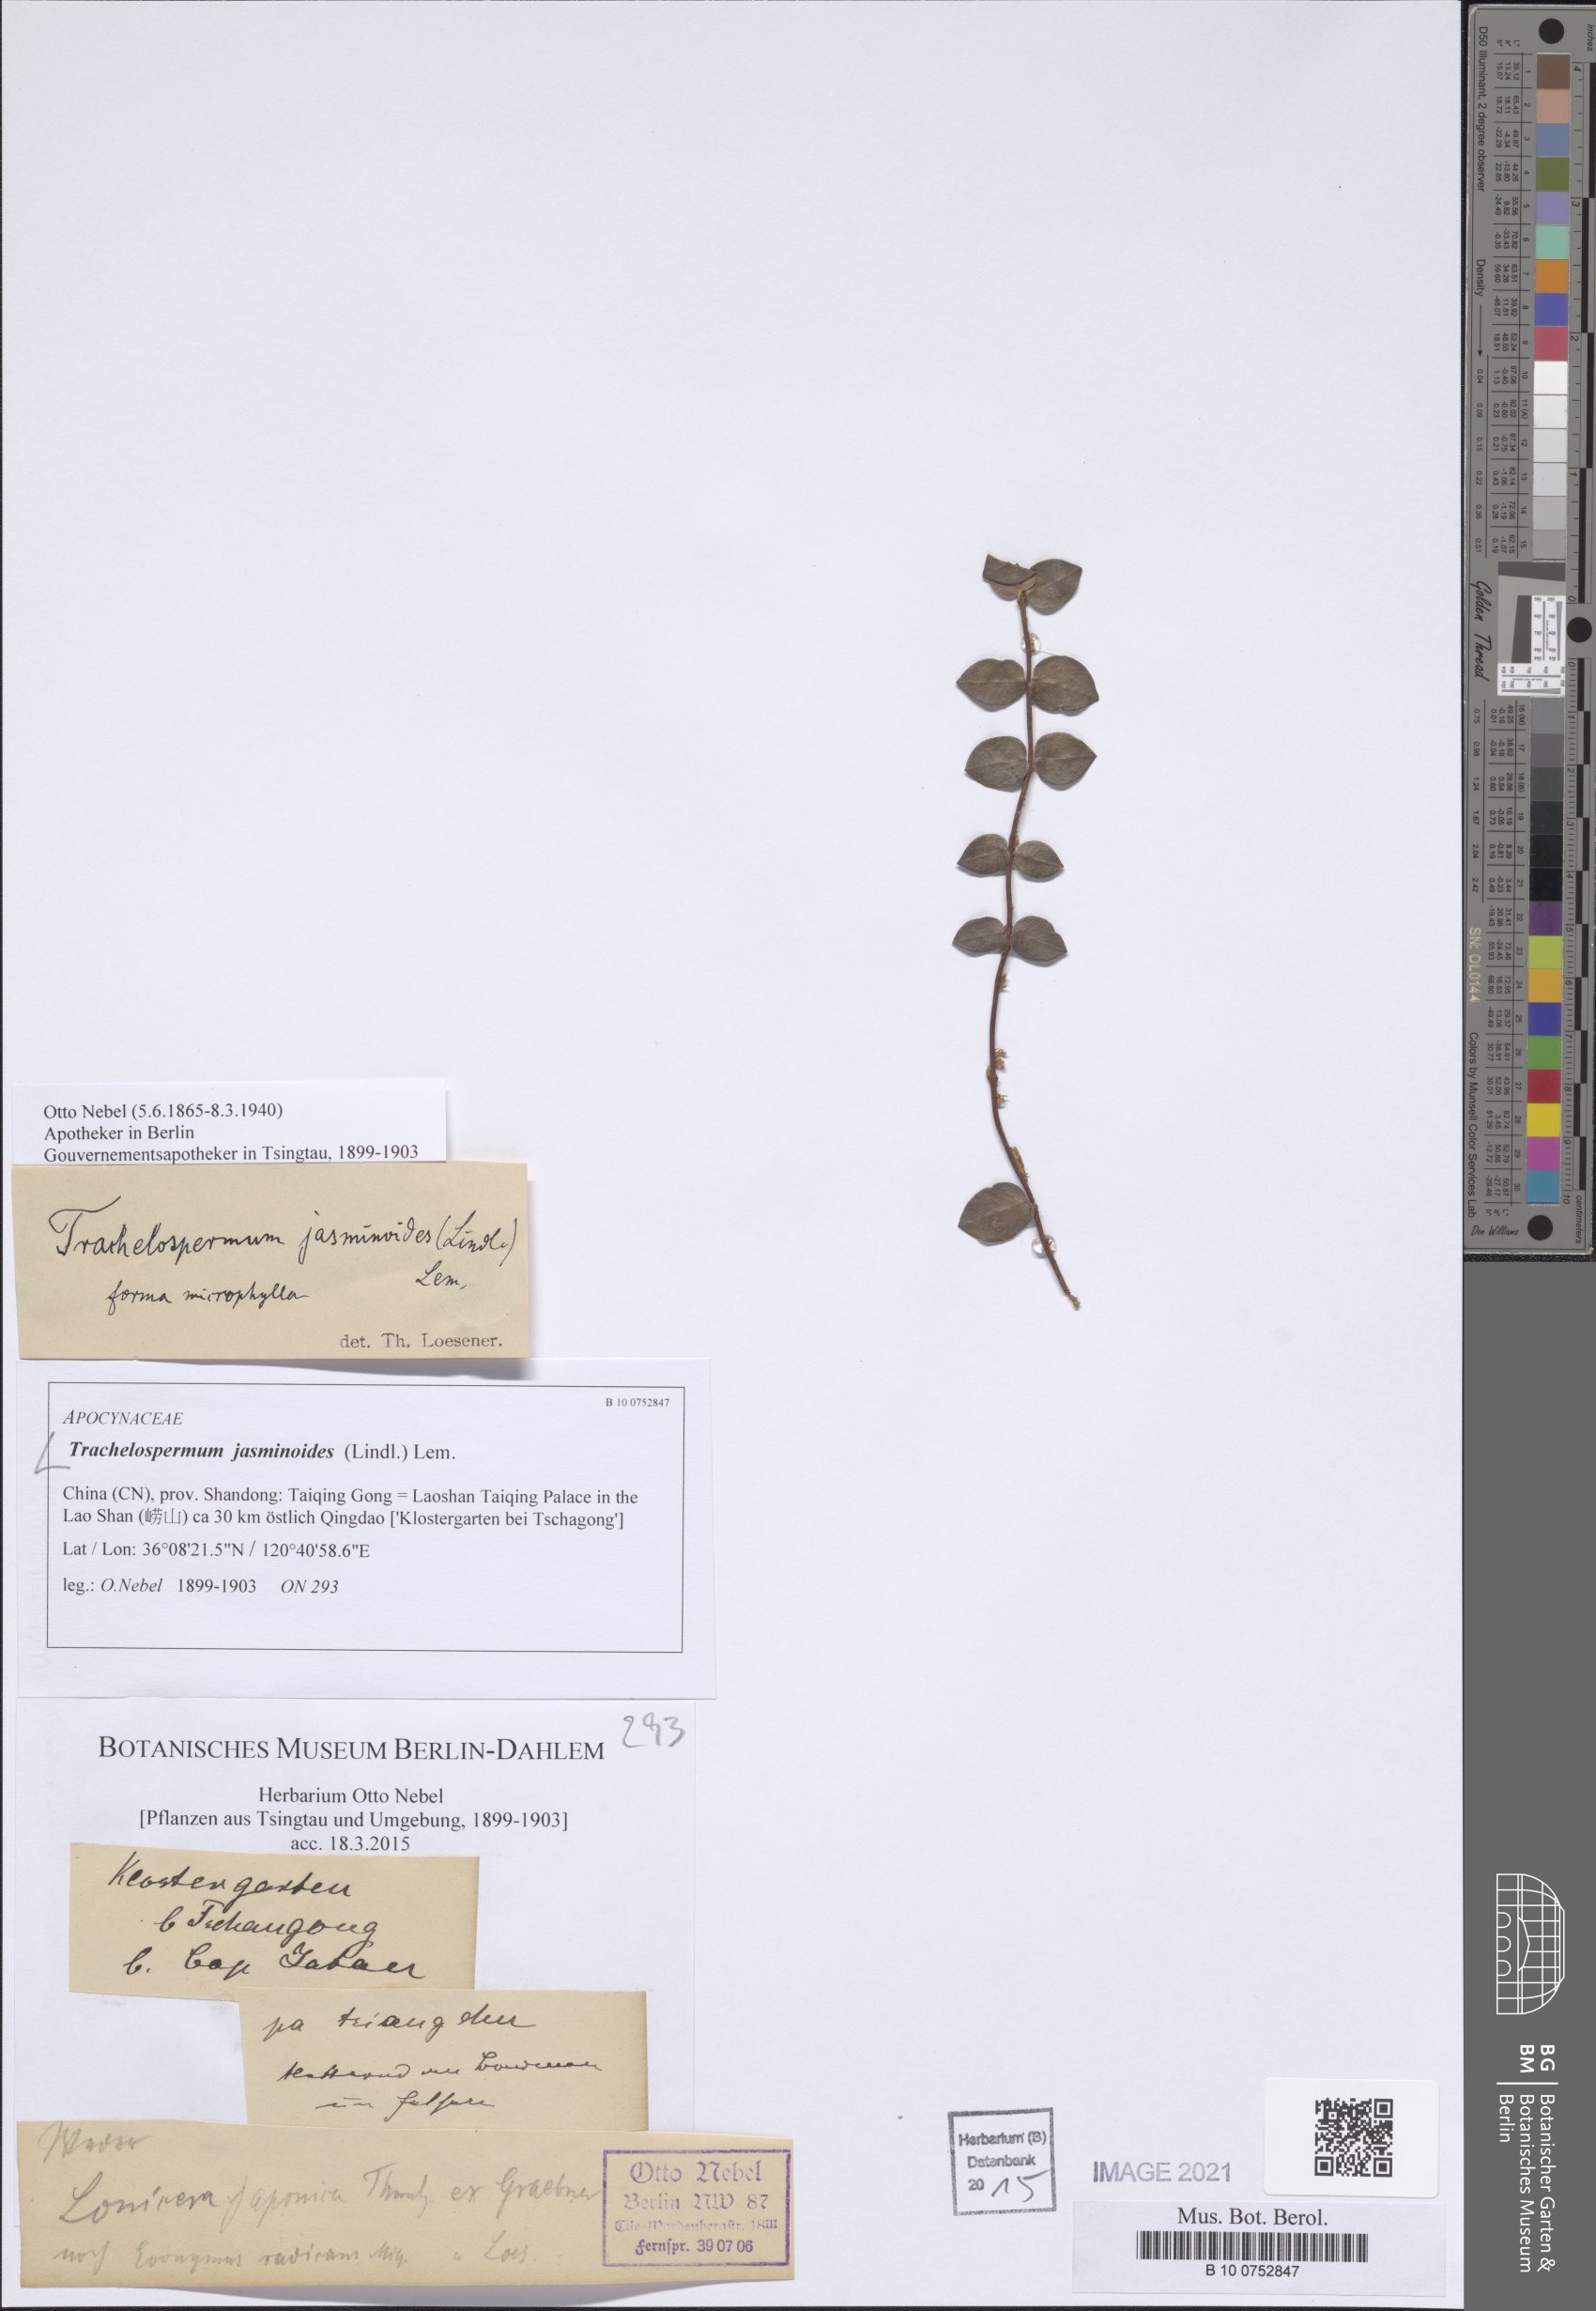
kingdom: Plantae
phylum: Tracheophyta
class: Magnoliopsida
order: Gentianales
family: Apocynaceae
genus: Trachelospermum
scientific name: Trachelospermum jasminoides
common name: Confederate jasmine
